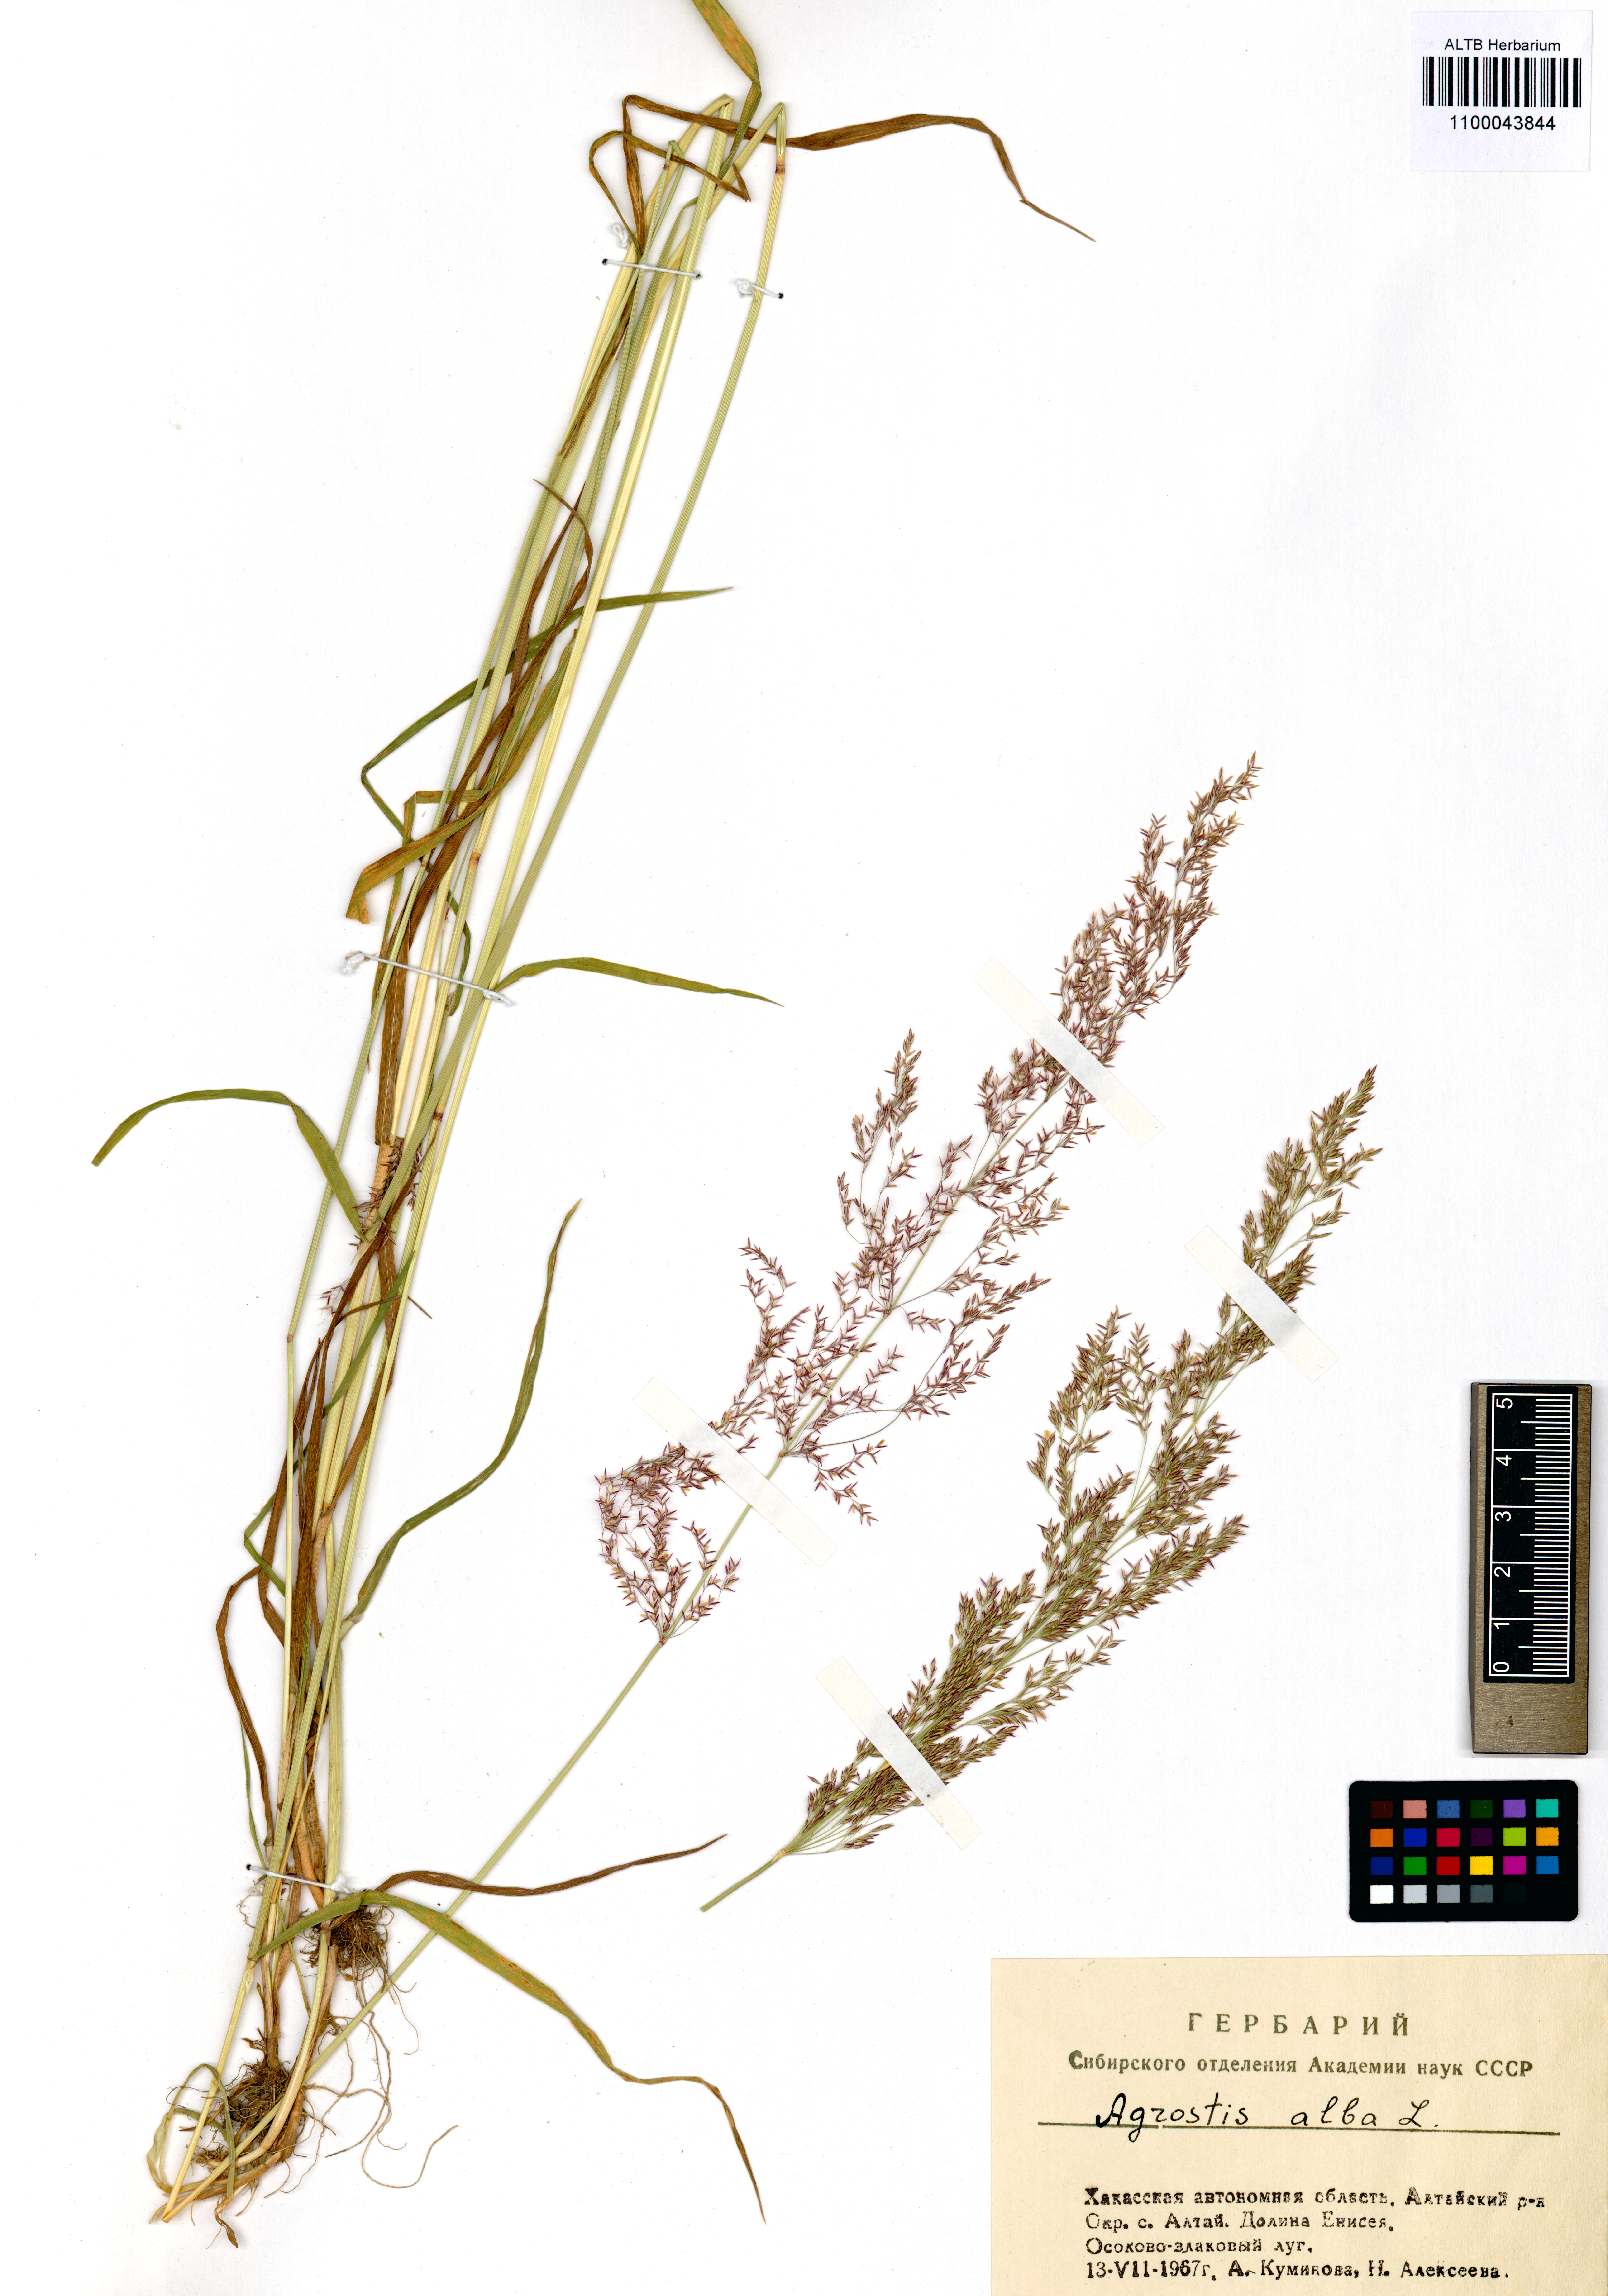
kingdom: Plantae
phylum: Tracheophyta
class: Liliopsida
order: Poales
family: Poaceae
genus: Agrostis
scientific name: Agrostis gigantea
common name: Black bent
